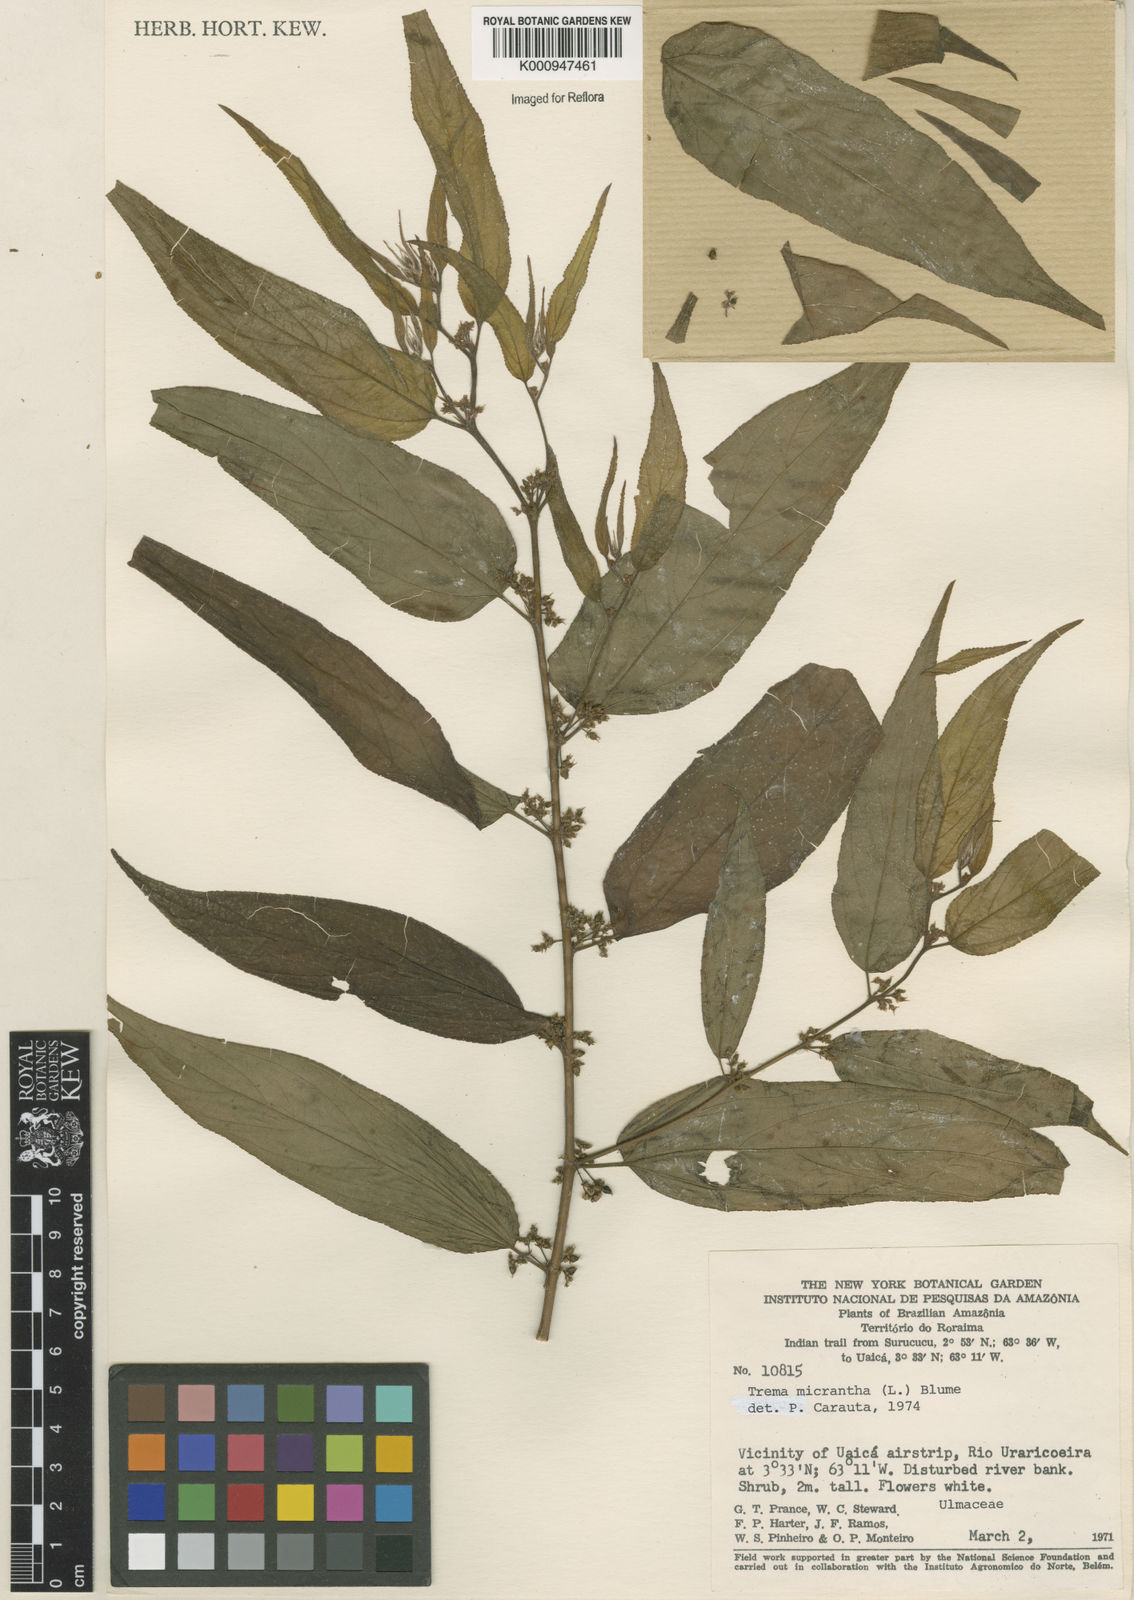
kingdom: Plantae
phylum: Tracheophyta
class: Magnoliopsida
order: Rosales
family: Cannabaceae
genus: Trema
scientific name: Trema micranthum
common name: Jamaican nettletree
